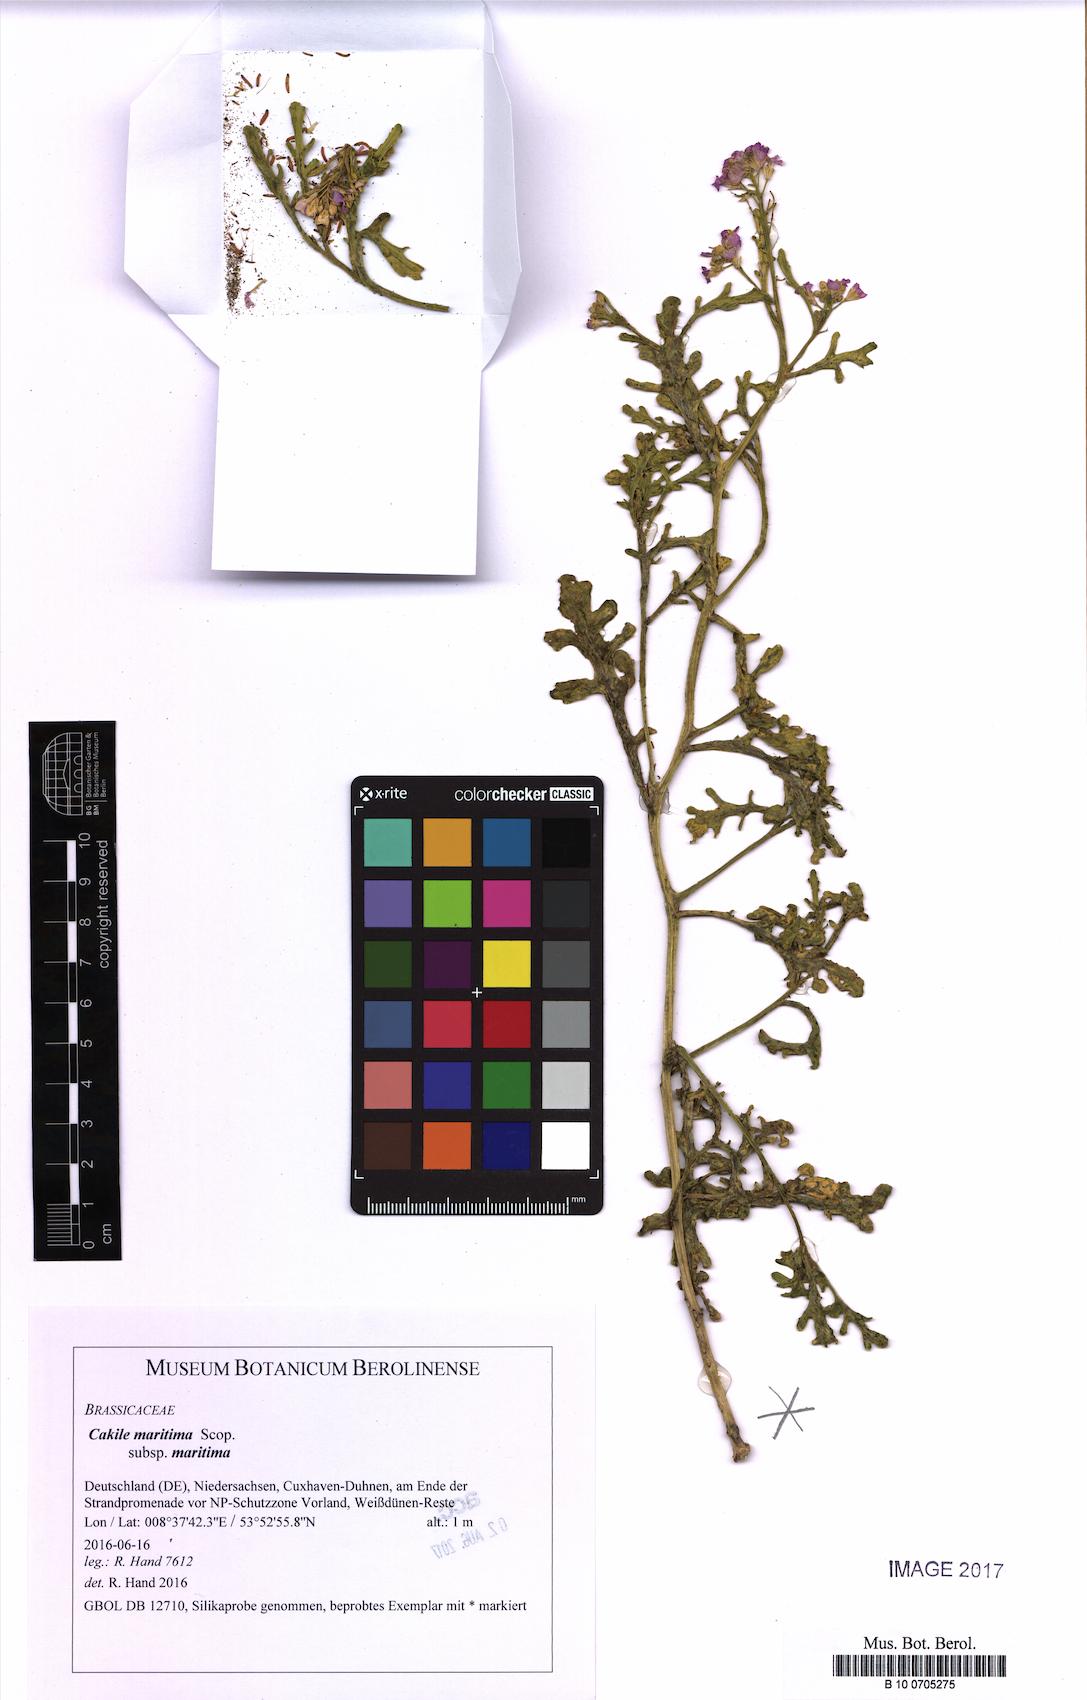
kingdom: Plantae
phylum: Tracheophyta
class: Magnoliopsida
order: Brassicales
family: Brassicaceae
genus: Cakile
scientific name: Cakile maritima
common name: Sea rocket
